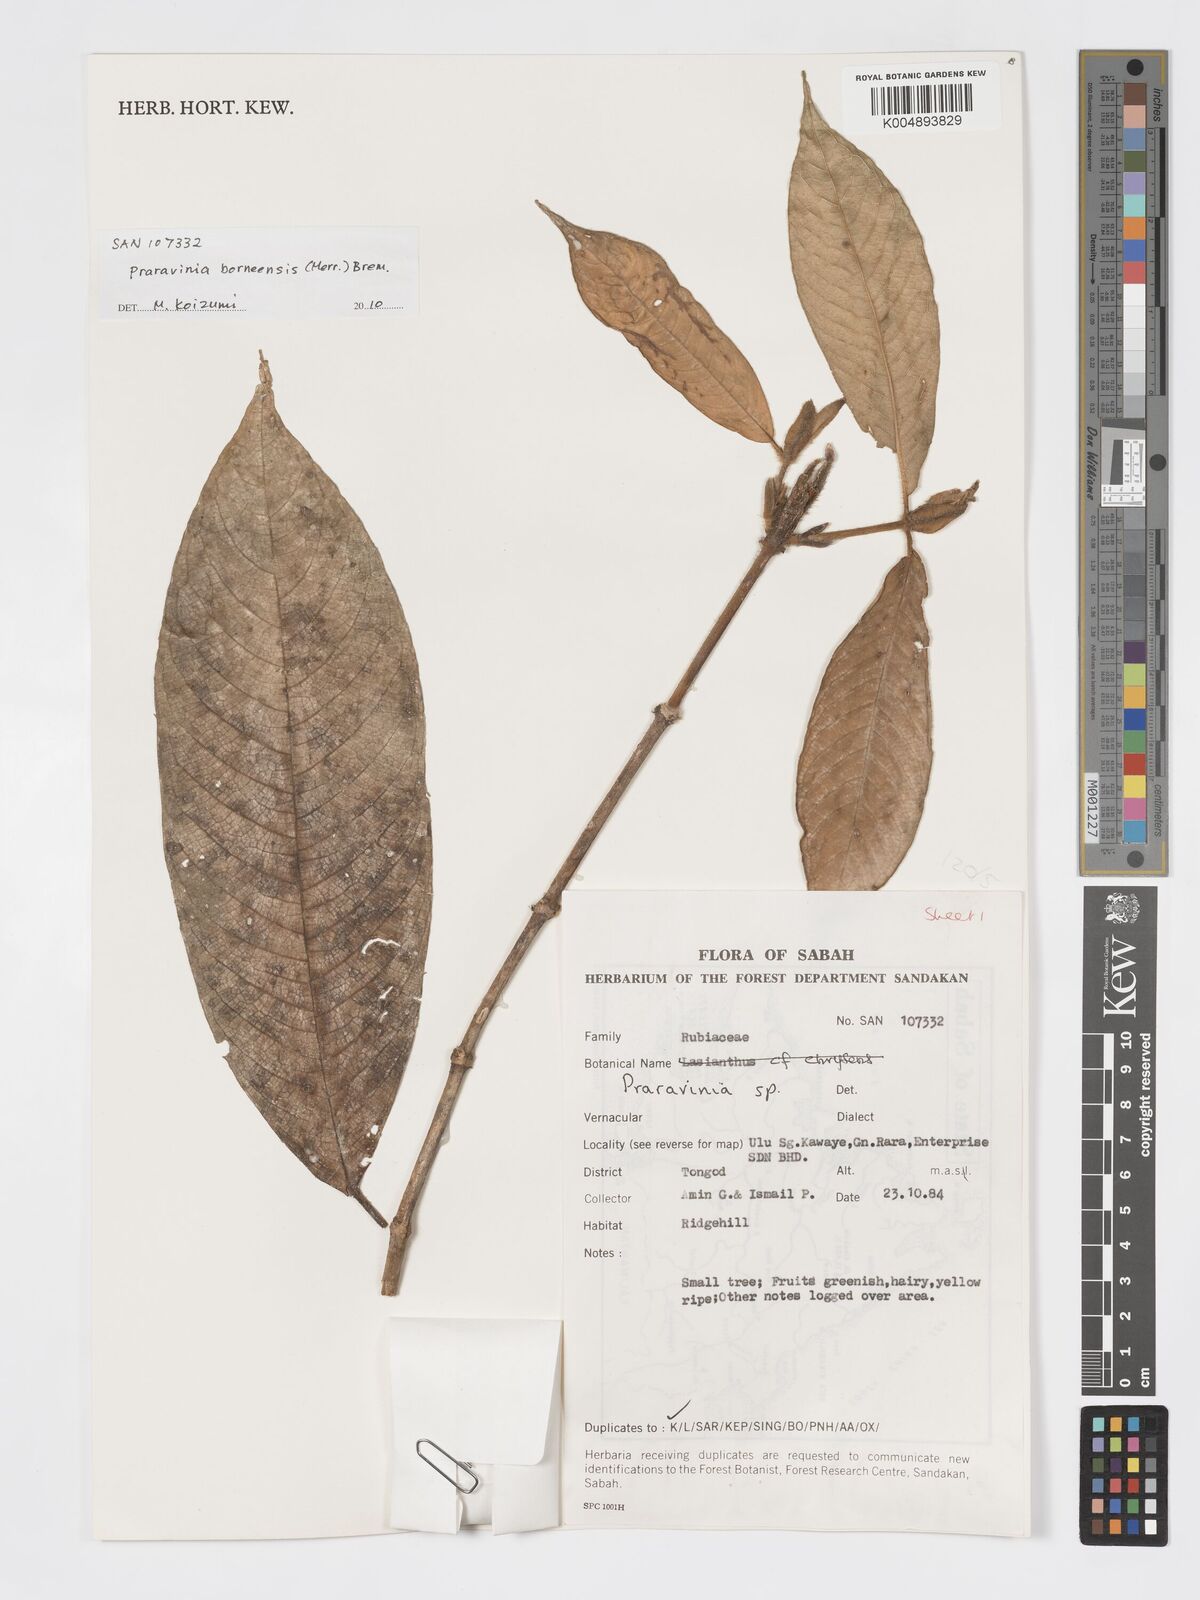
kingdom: Plantae
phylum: Tracheophyta
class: Magnoliopsida
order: Gentianales
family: Rubiaceae
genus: Praravinia
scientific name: Praravinia borneensis
